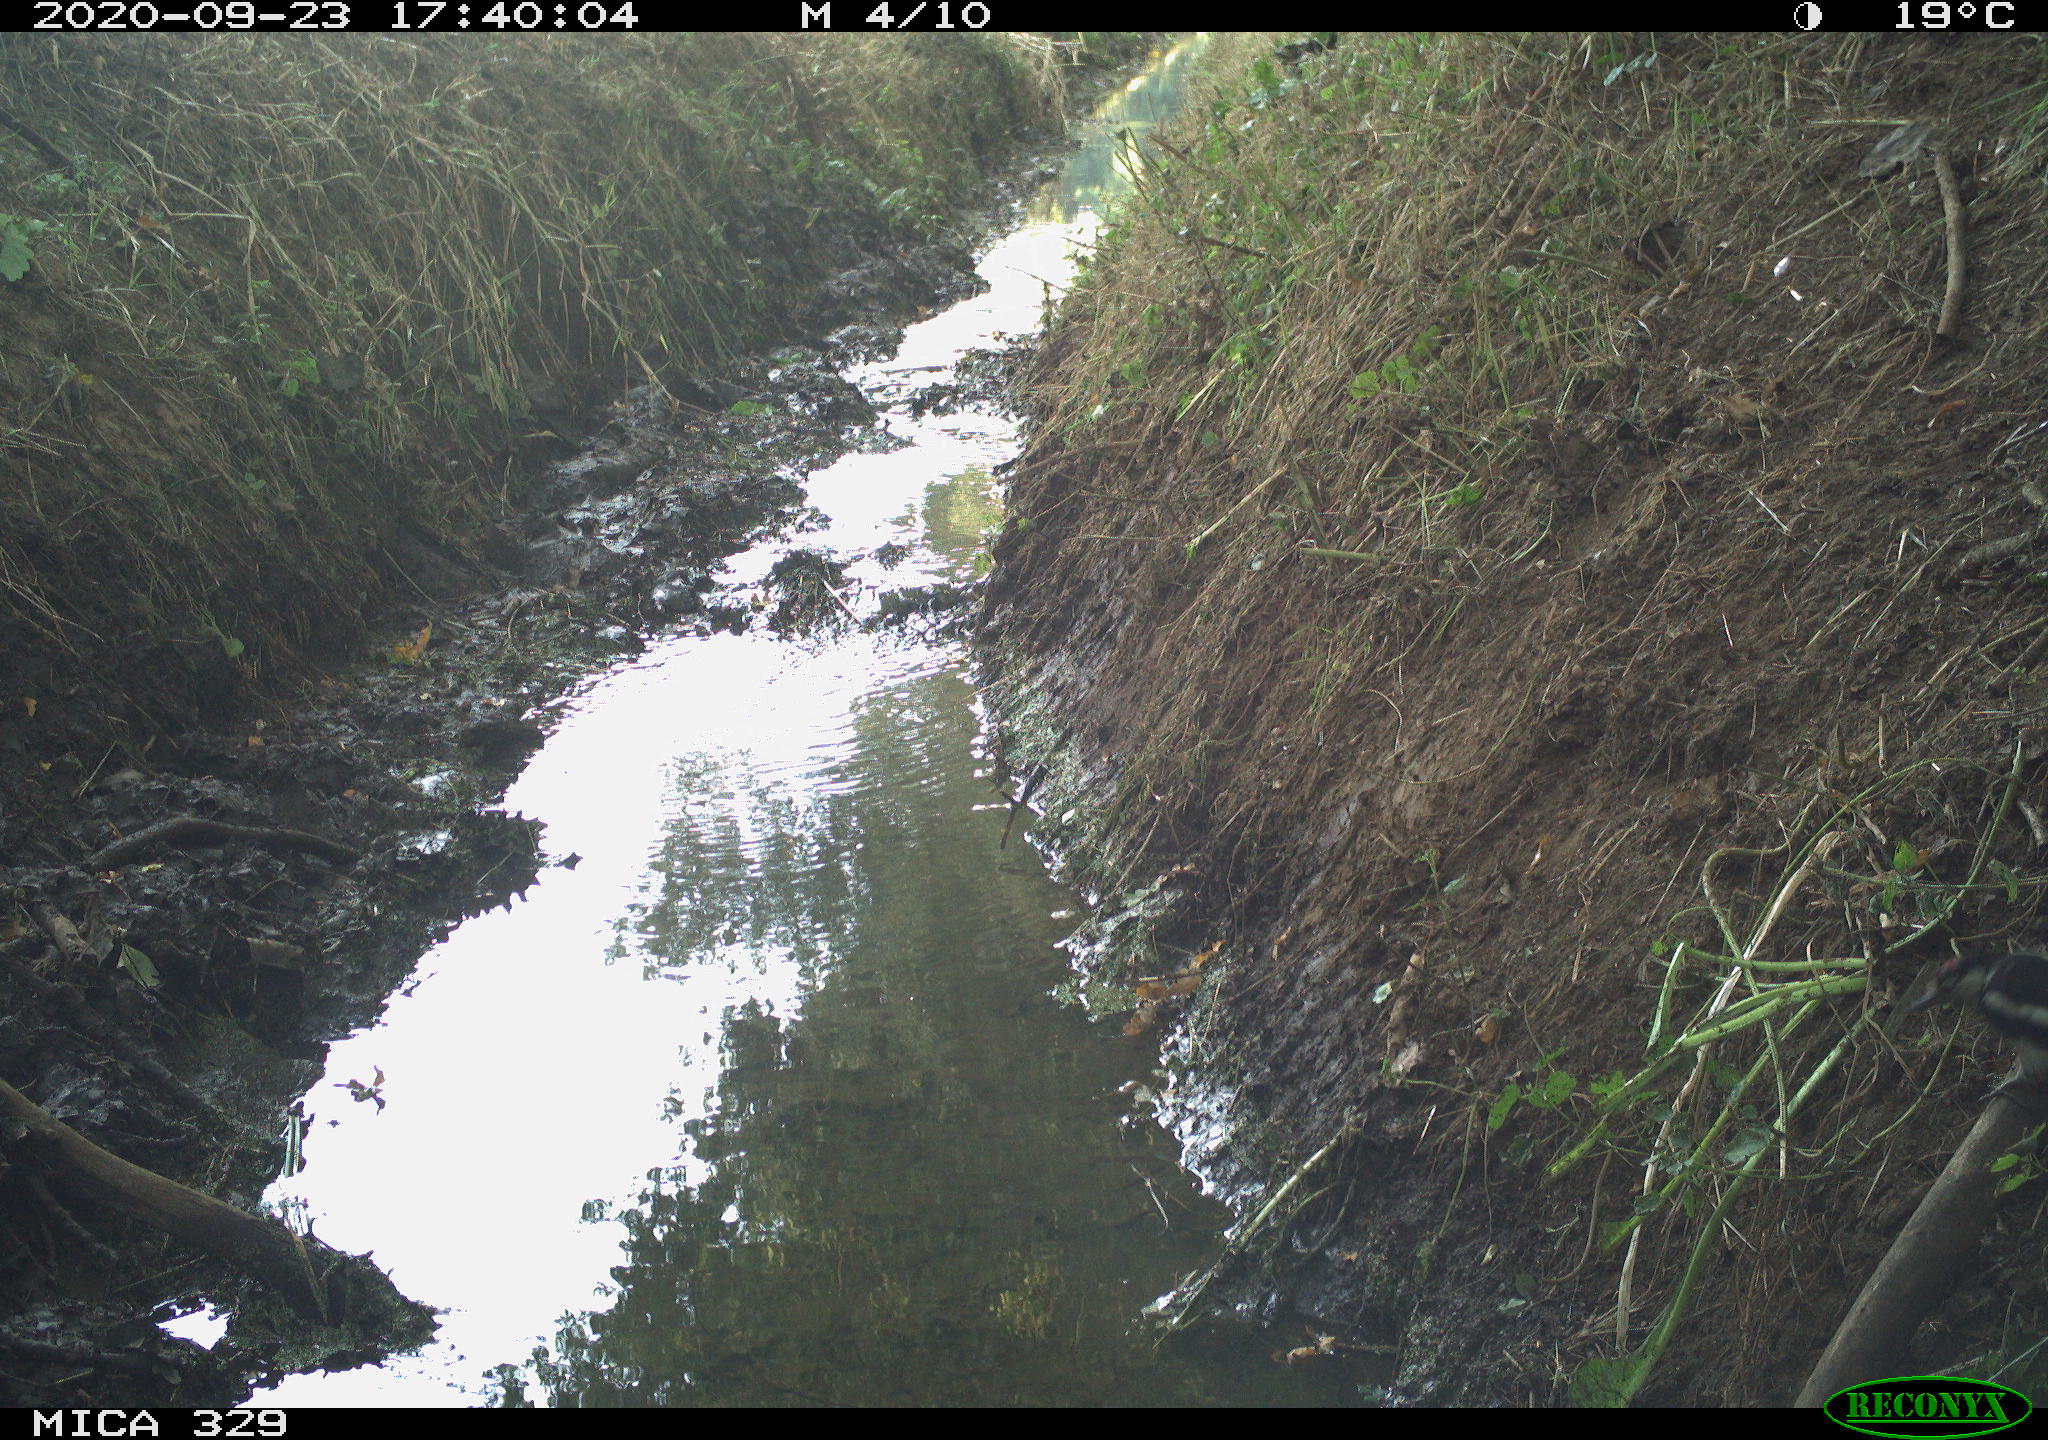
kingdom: Animalia
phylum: Chordata
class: Aves
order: Piciformes
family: Picidae
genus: Dendrocopos
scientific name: Dendrocopos major
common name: Great spotted woodpecker
